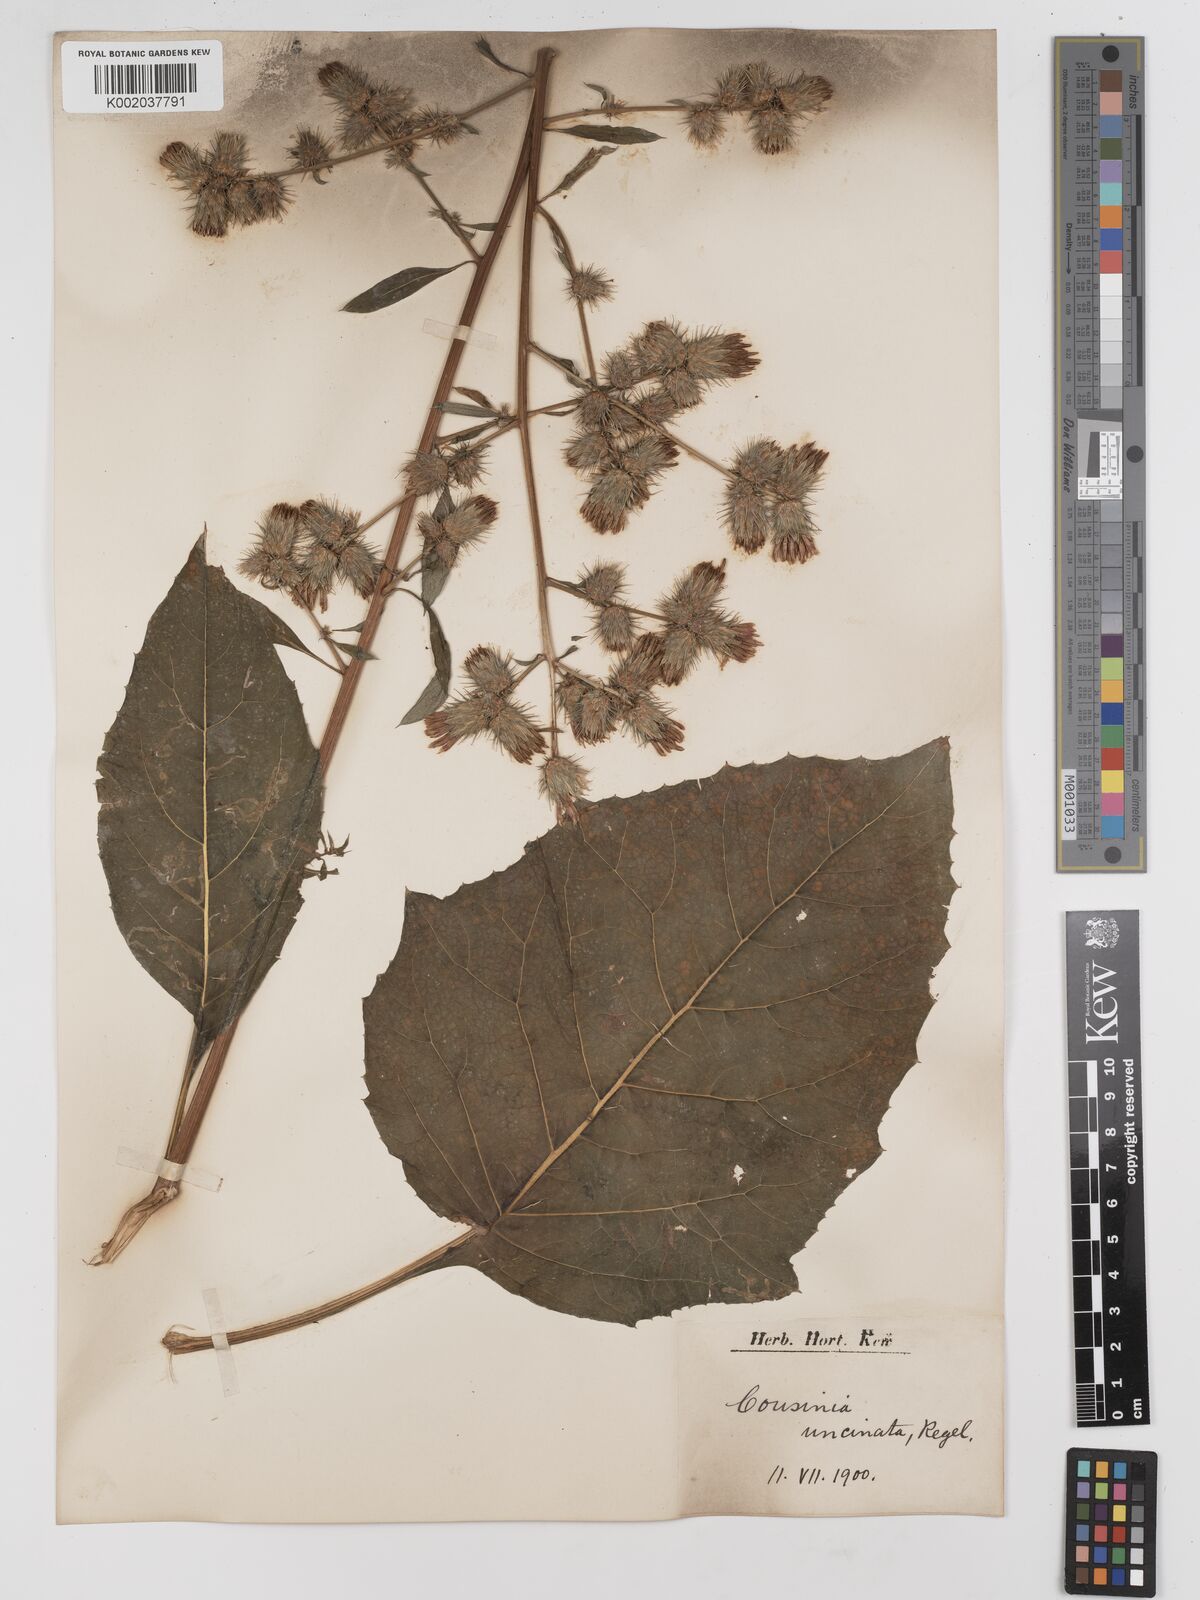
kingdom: Plantae
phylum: Tracheophyta
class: Magnoliopsida
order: Asterales
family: Asteraceae
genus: Arctium
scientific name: Arctium umbrosum
